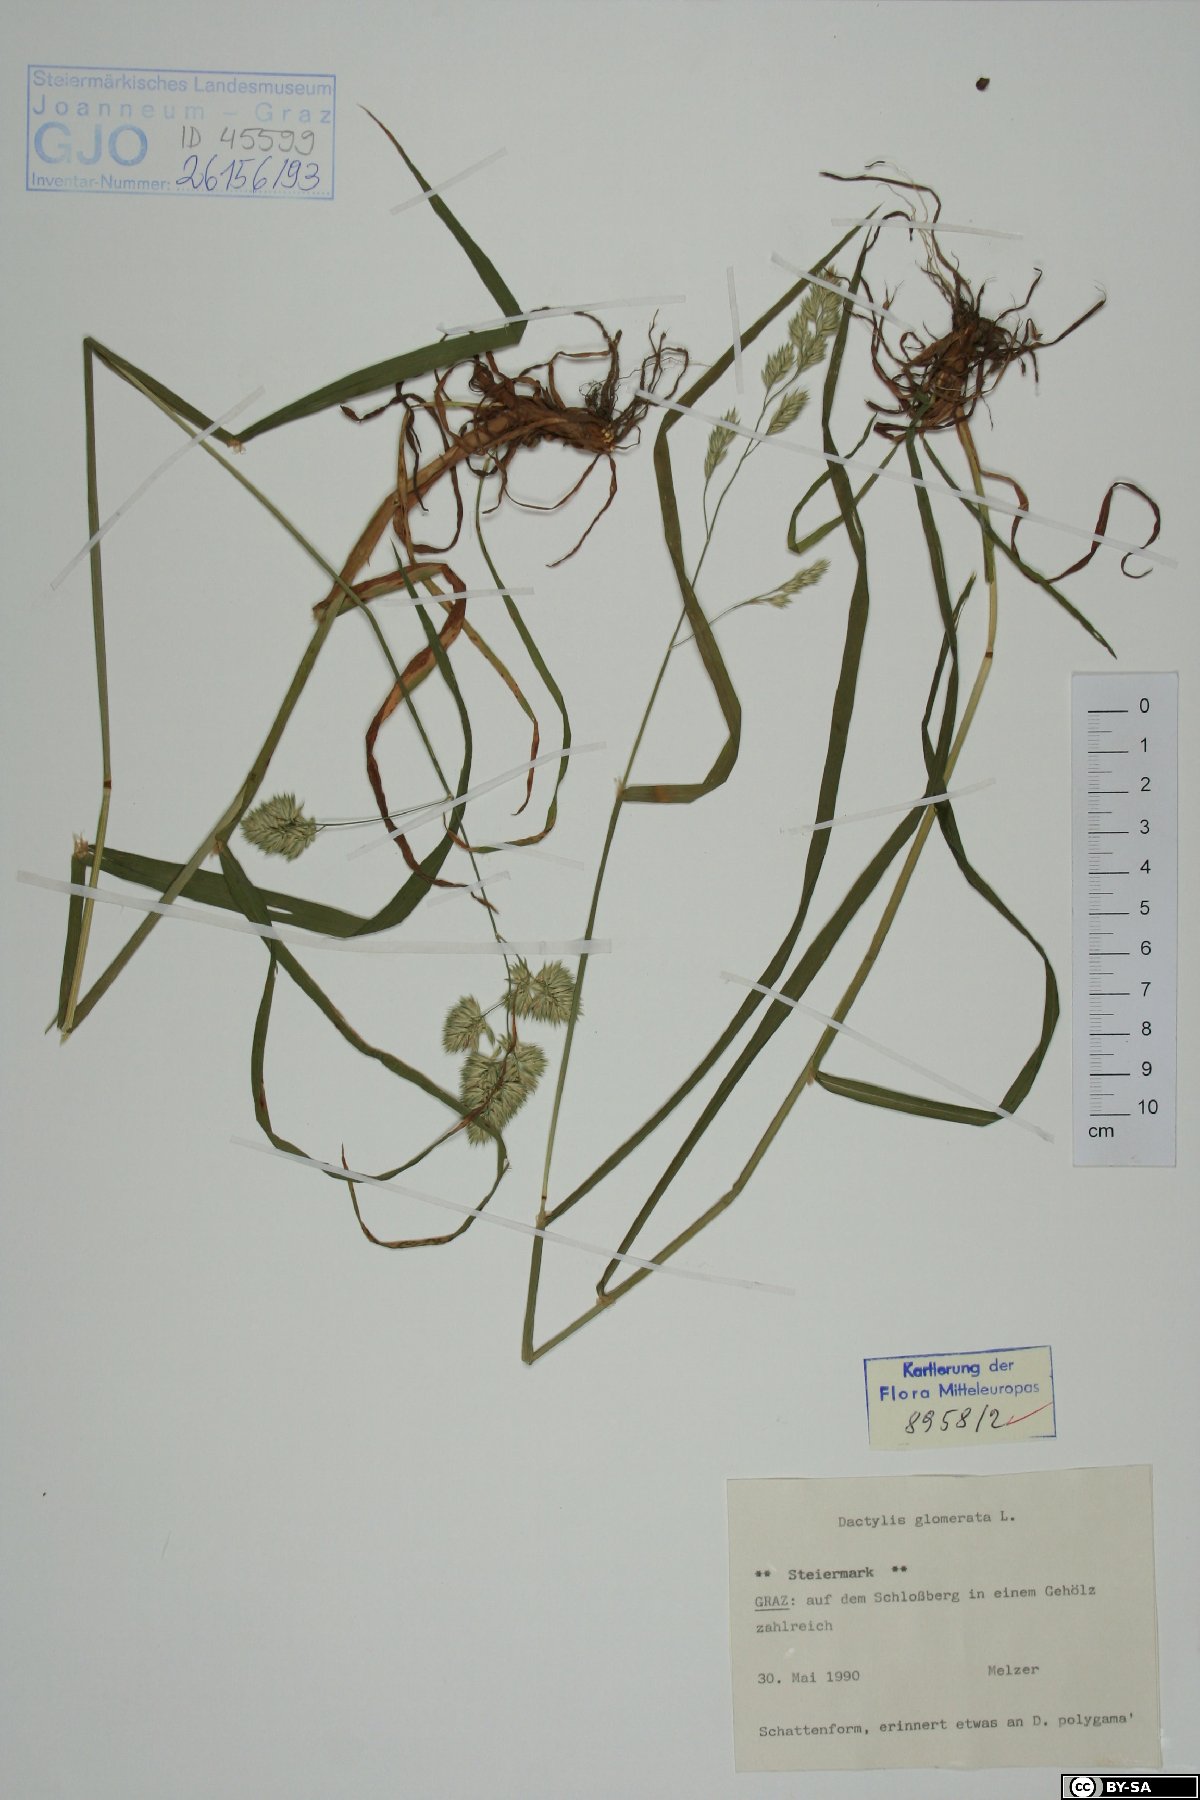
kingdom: Plantae
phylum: Tracheophyta
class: Liliopsida
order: Poales
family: Poaceae
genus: Dactylis
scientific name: Dactylis glomerata
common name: Orchardgrass
